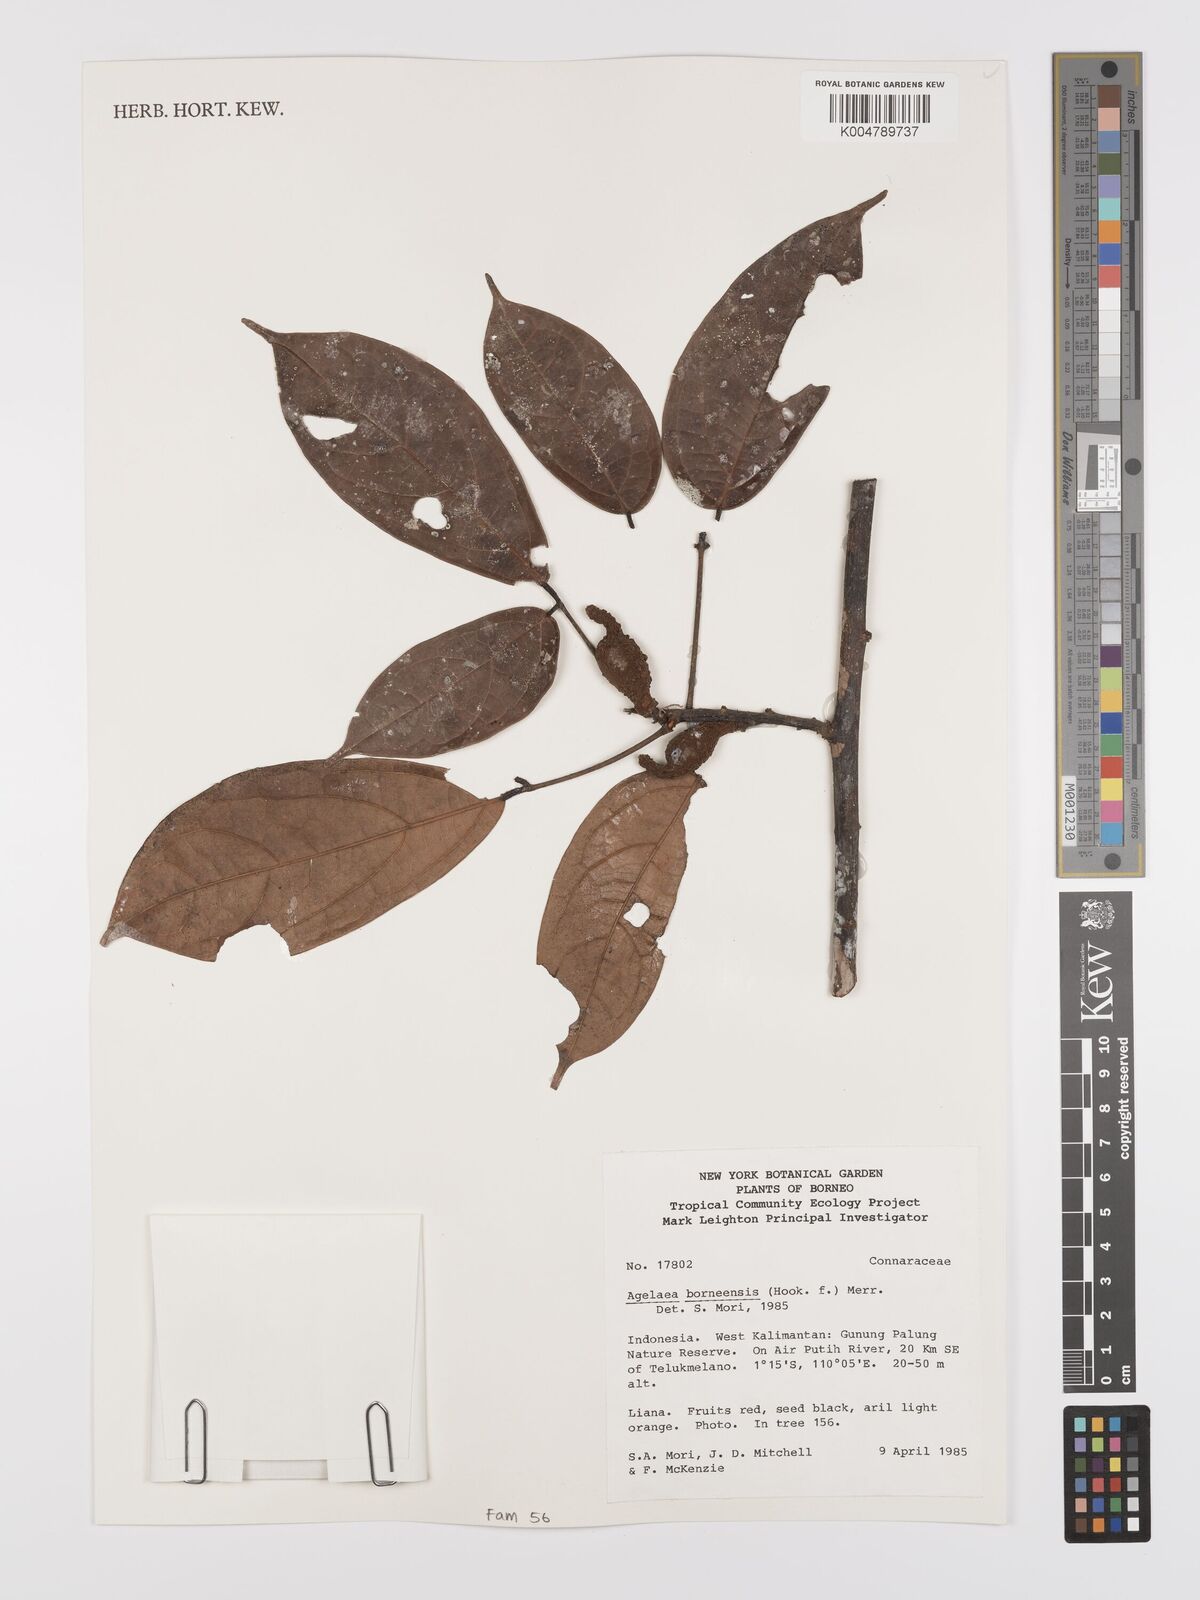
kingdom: Plantae
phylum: Tracheophyta
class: Magnoliopsida
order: Oxalidales
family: Connaraceae
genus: Agelaea
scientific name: Agelaea borneensis
